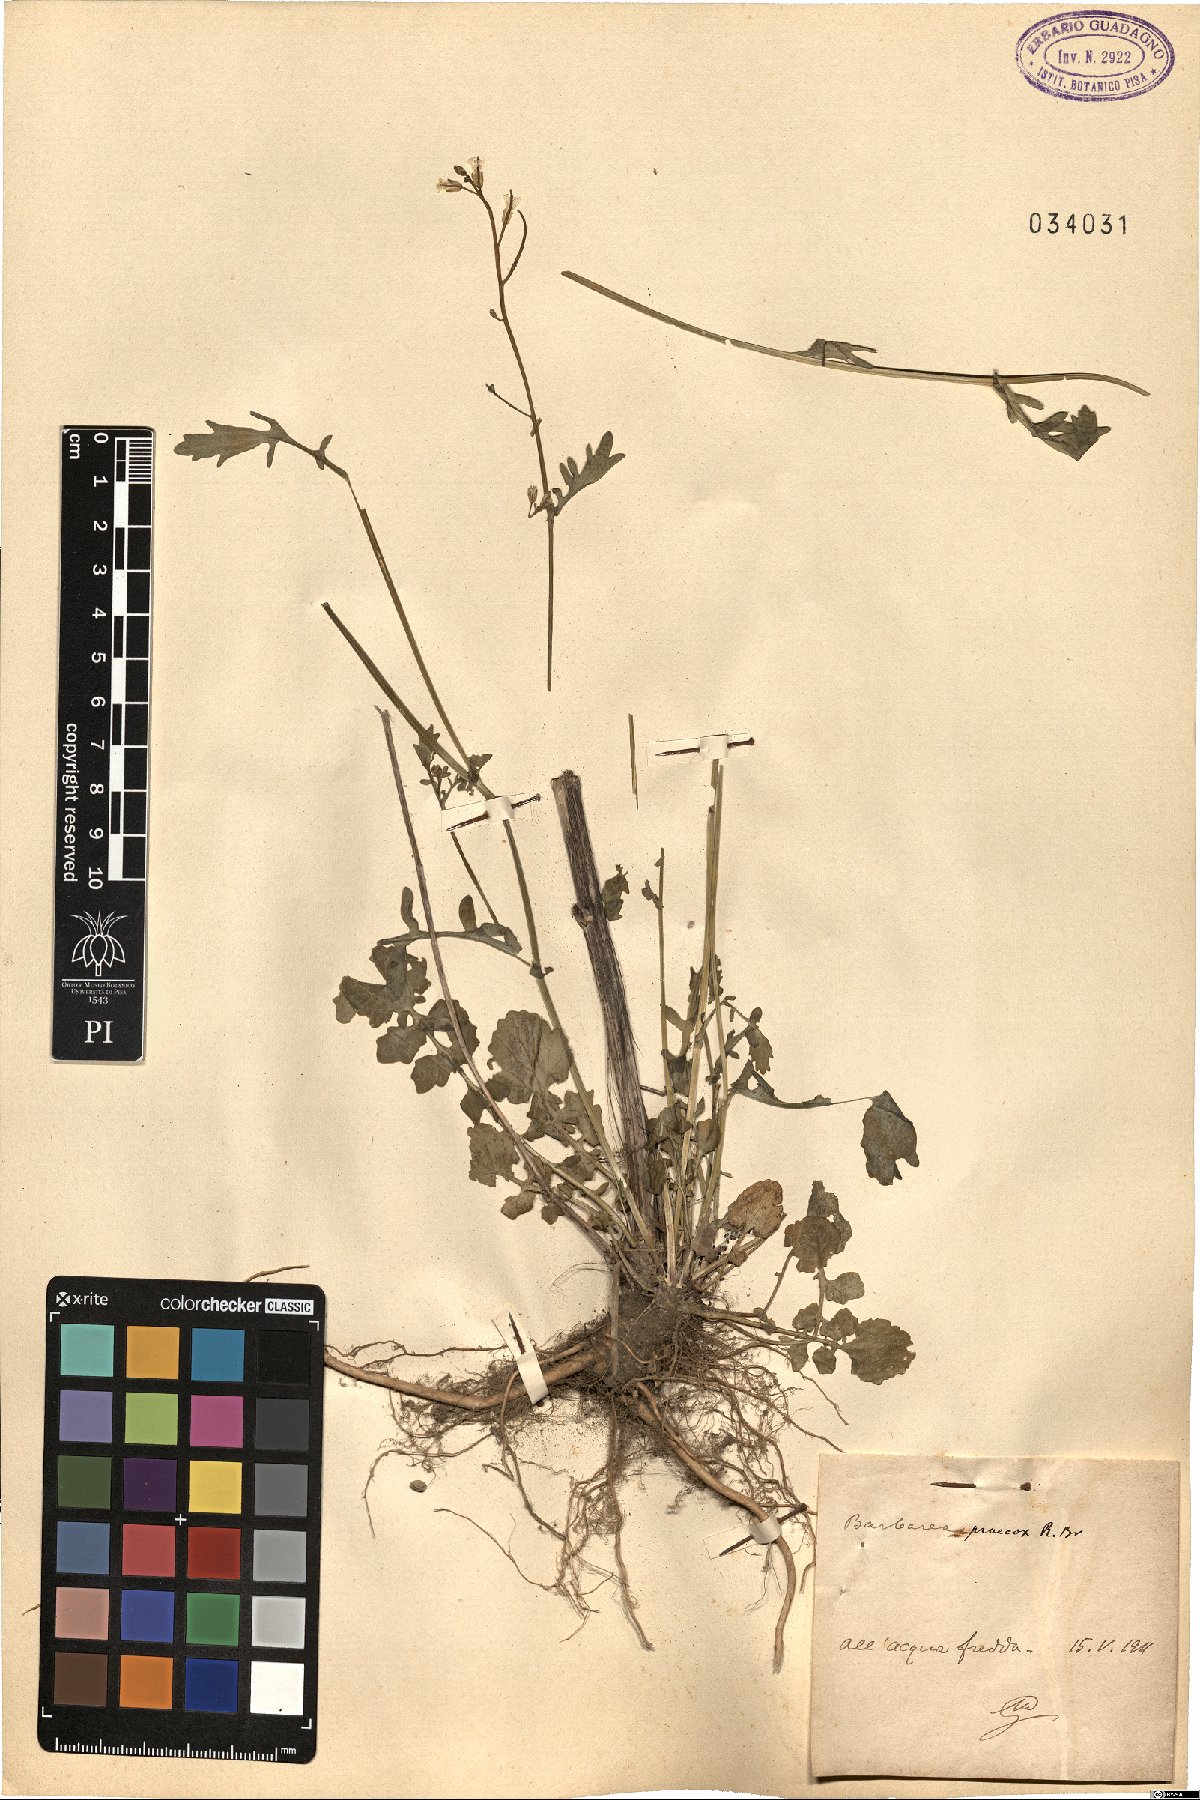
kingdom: Plantae
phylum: Tracheophyta
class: Magnoliopsida
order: Brassicales
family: Brassicaceae
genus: Barbarea
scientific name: Barbarea verna
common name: American cress
